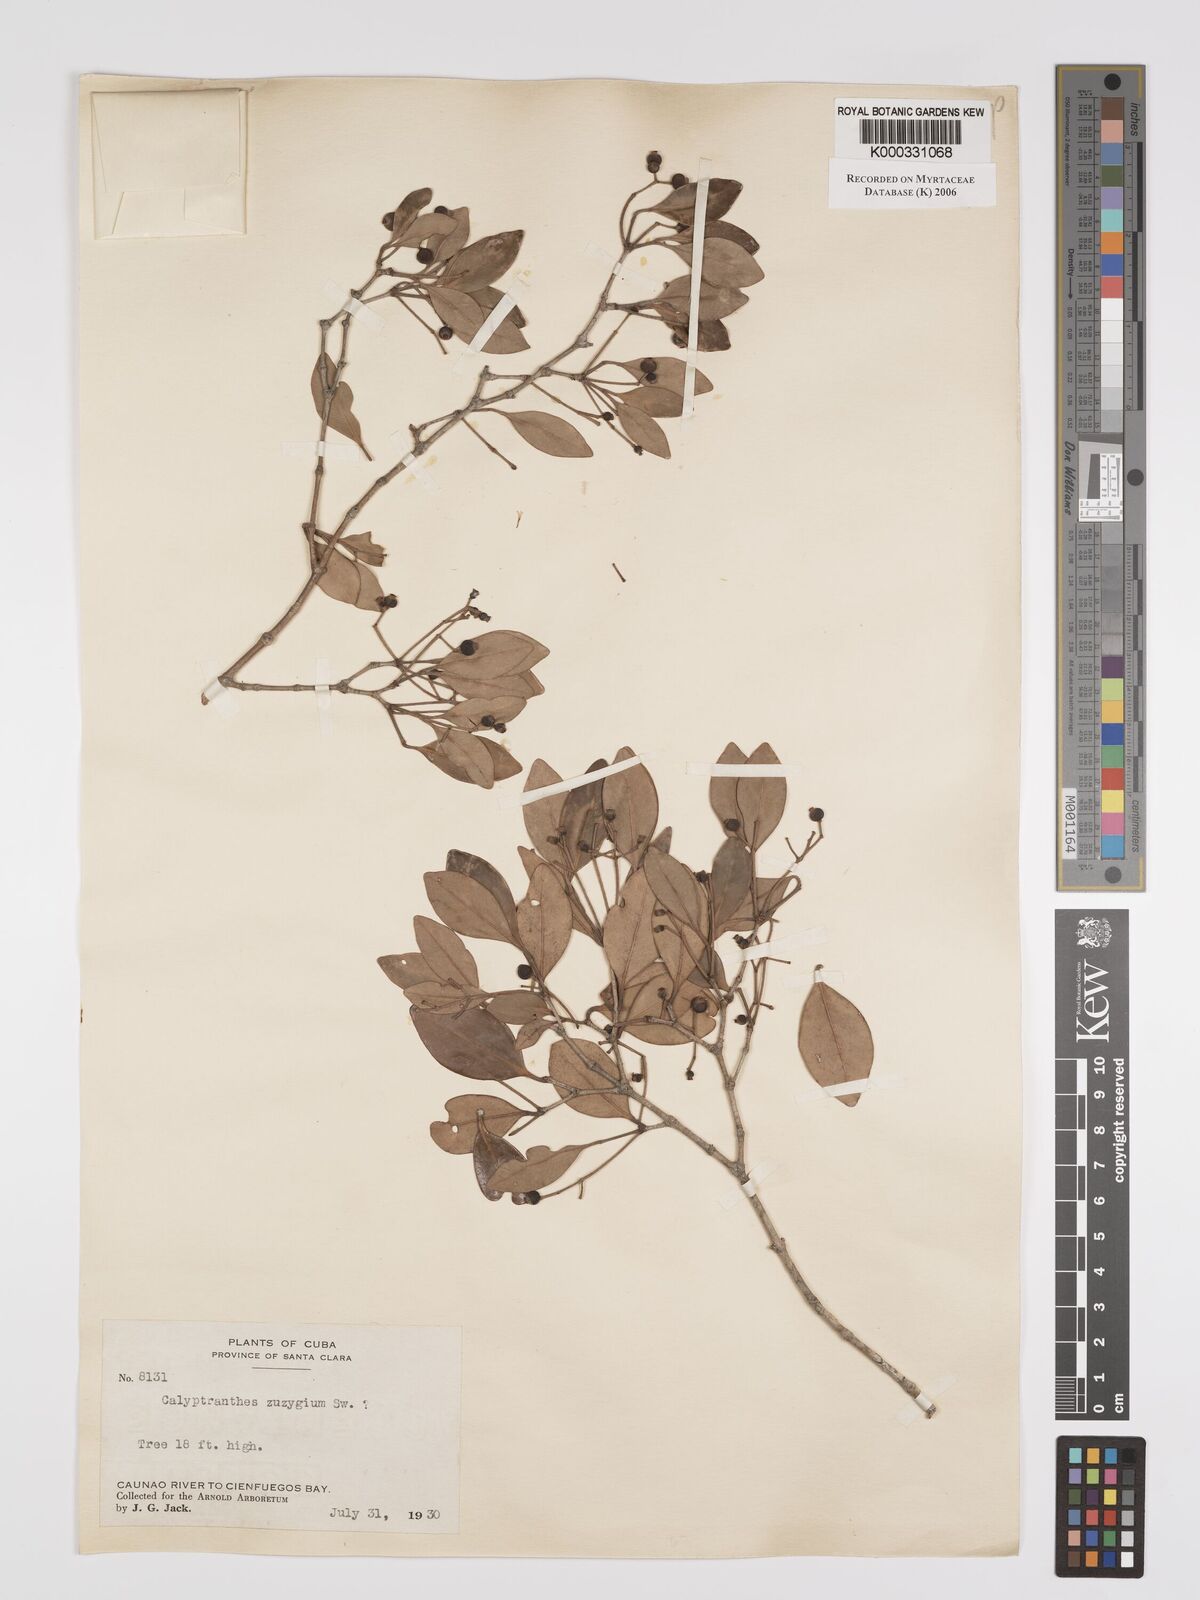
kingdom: Plantae
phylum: Tracheophyta
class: Magnoliopsida
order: Myrtales
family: Myrtaceae
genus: Myrcia
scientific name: Myrcia chytraculia
